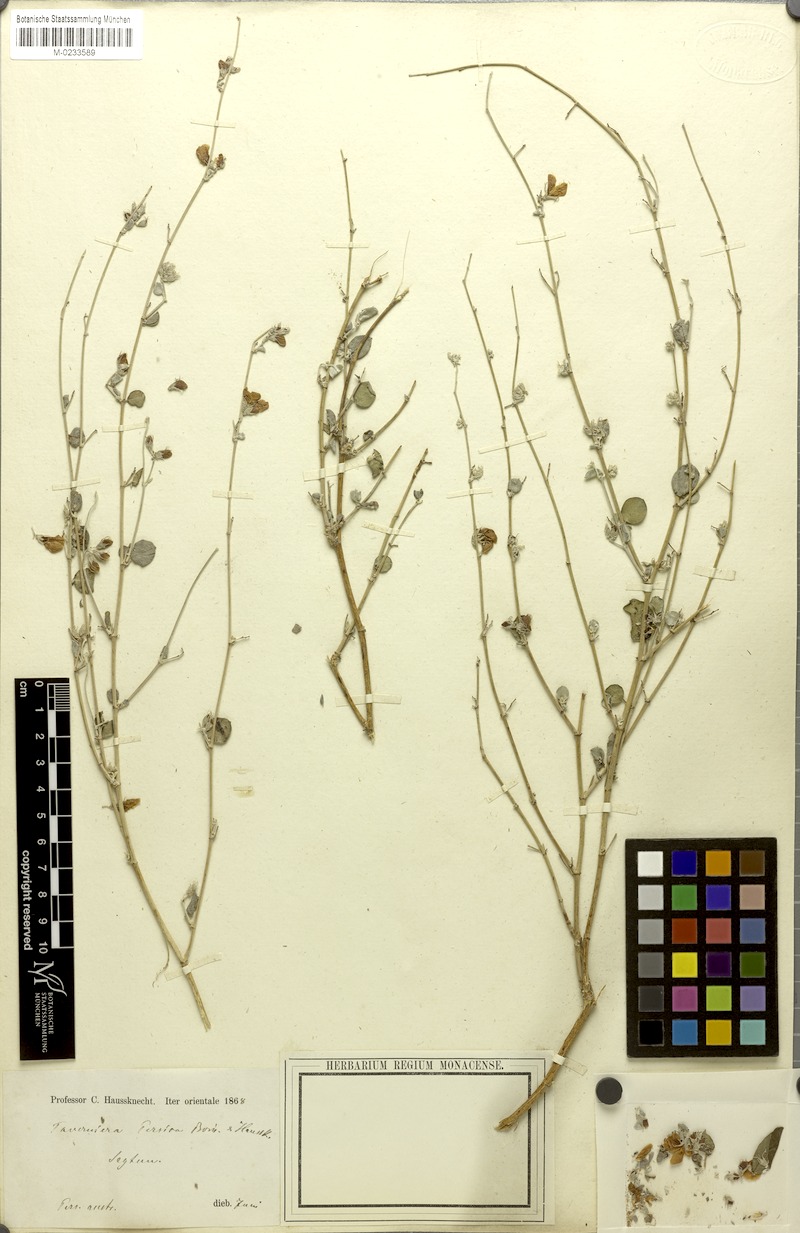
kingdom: Plantae
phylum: Tracheophyta
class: Magnoliopsida
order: Fabales
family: Fabaceae
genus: Taverniera
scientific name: Taverniera nummularia
